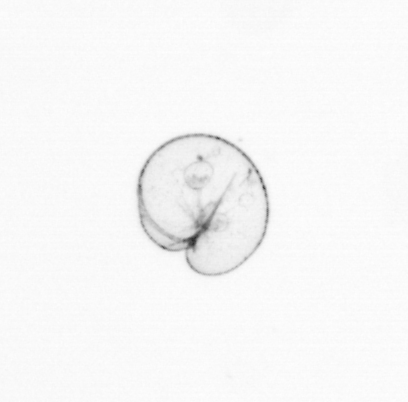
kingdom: Chromista
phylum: Myzozoa
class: Dinophyceae
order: Noctilucales
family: Noctilucaceae
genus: Noctiluca
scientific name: Noctiluca scintillans
